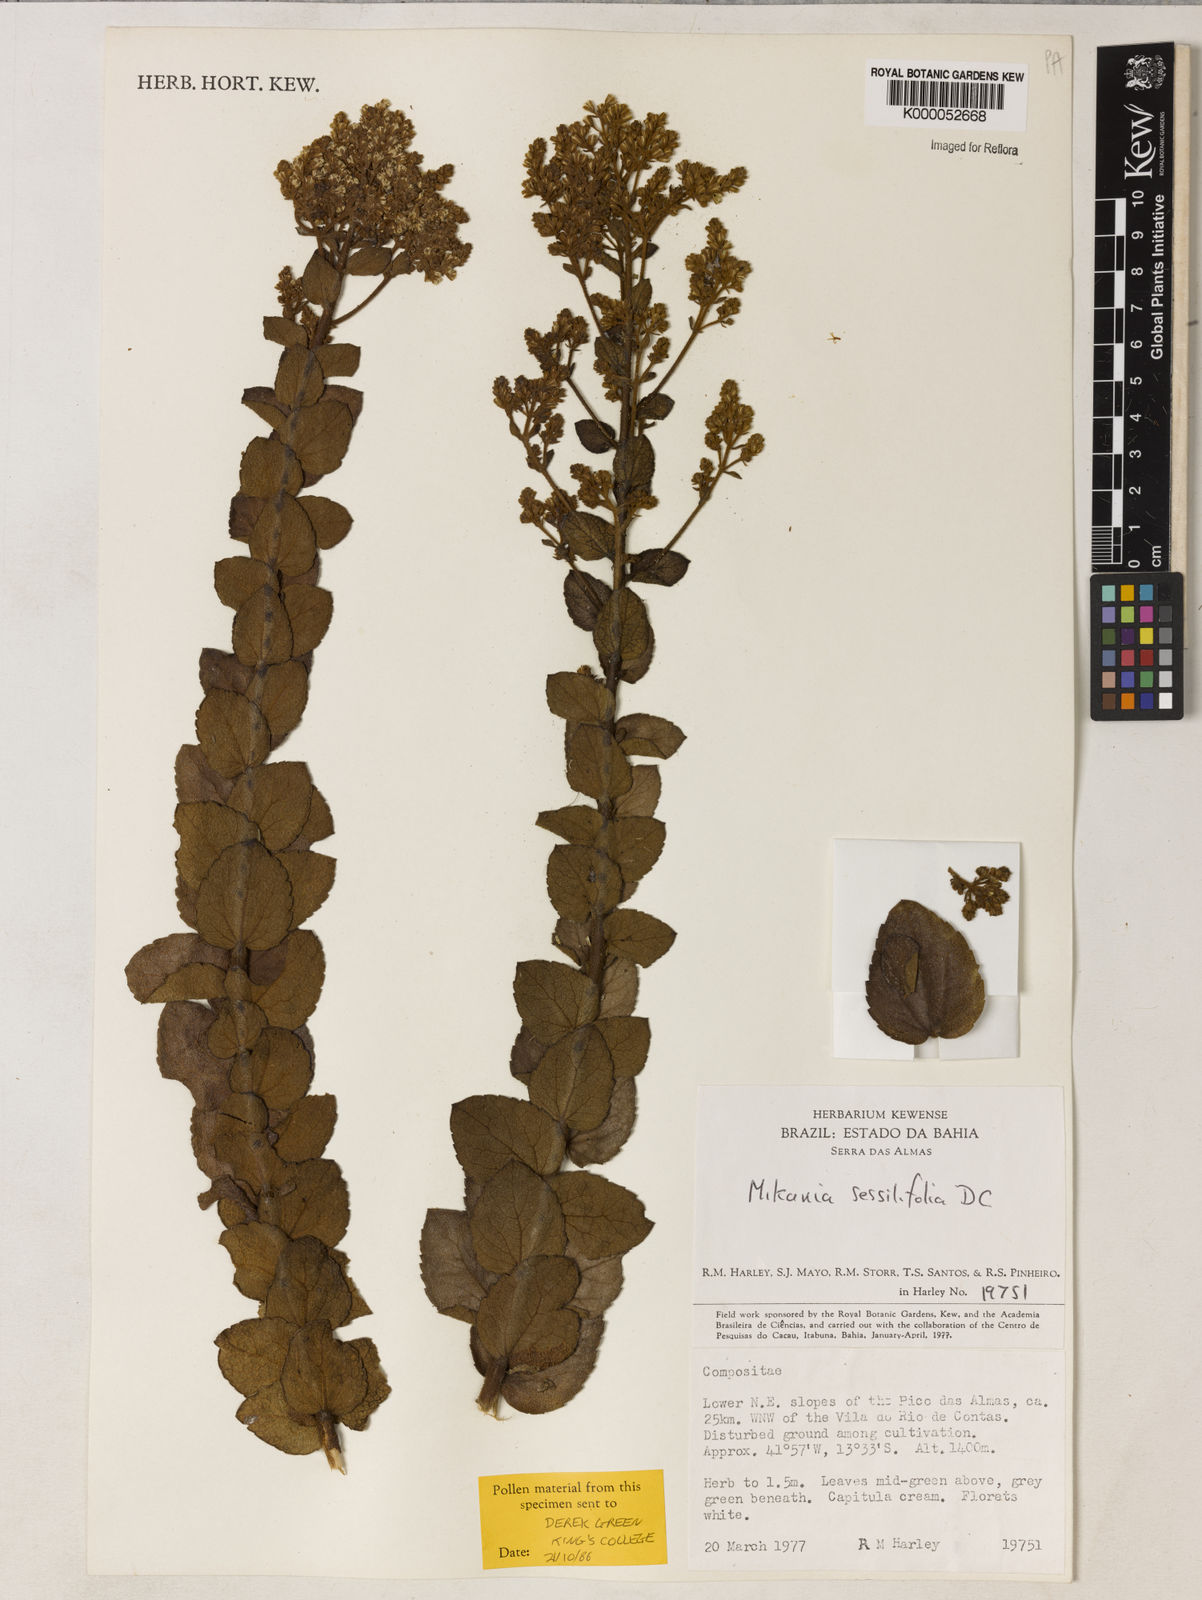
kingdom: Plantae
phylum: Tracheophyta
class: Magnoliopsida
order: Asterales
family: Asteraceae
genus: Mikania
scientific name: Mikania sessilifolia
